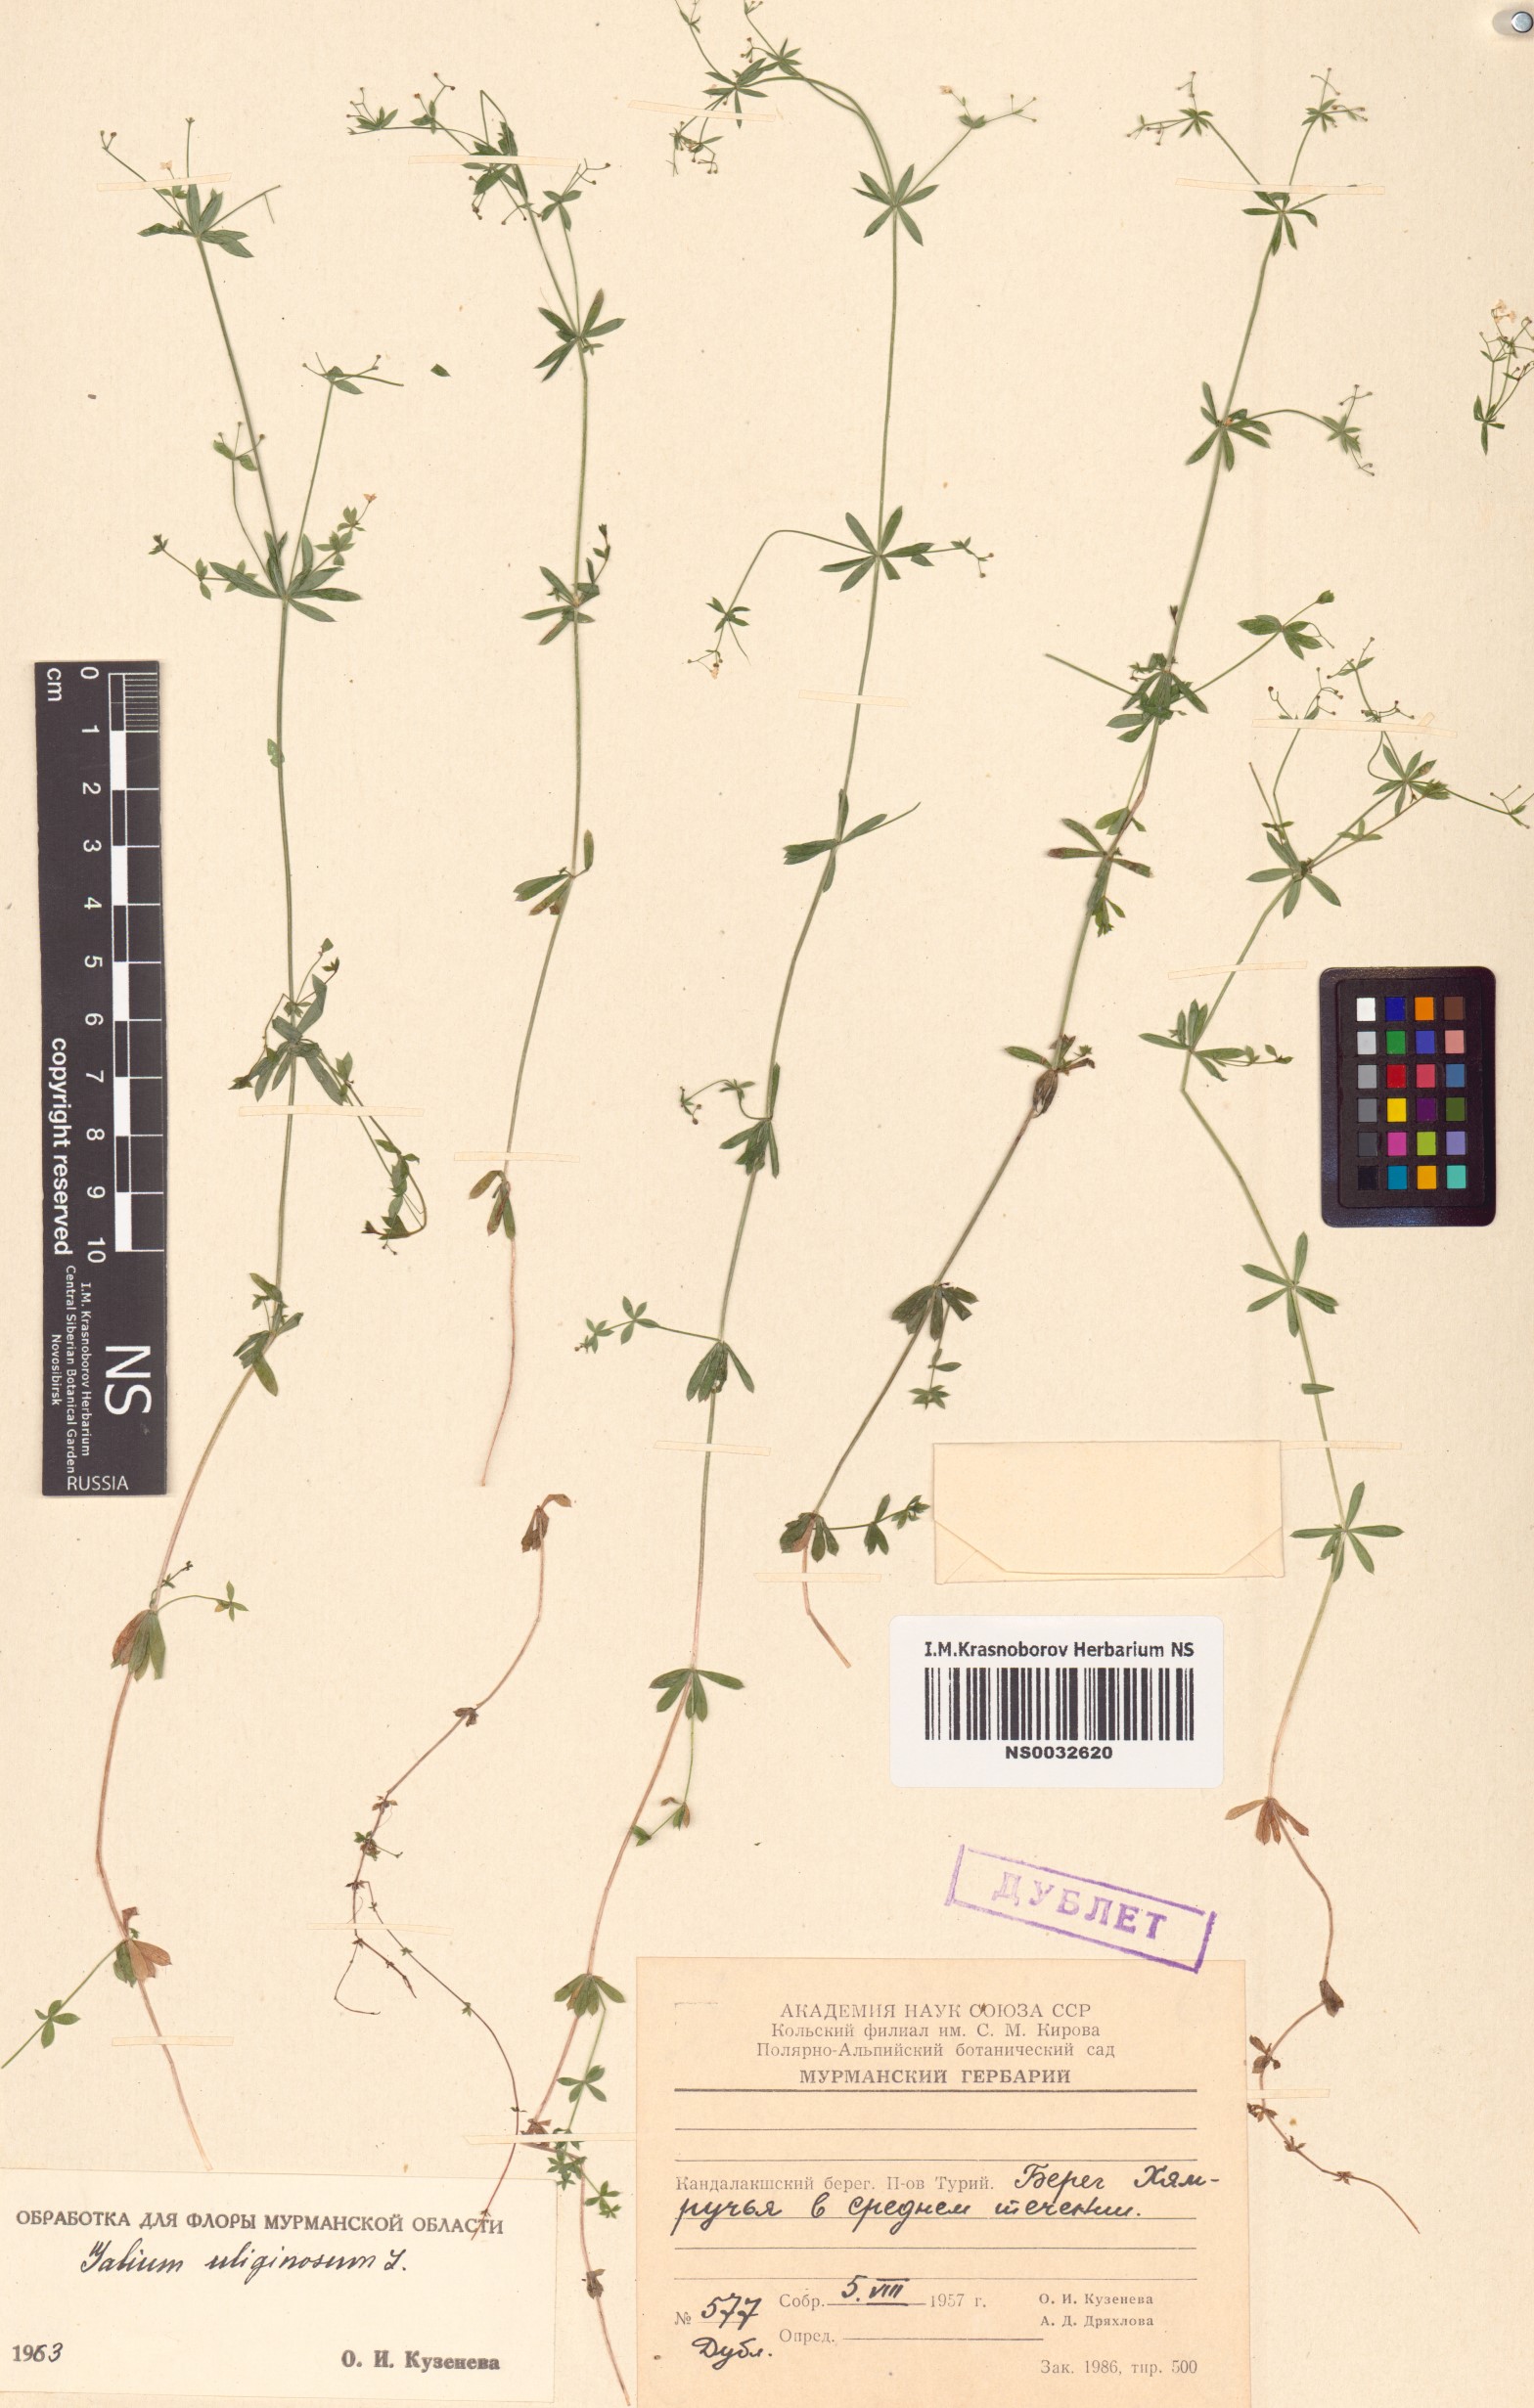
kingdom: Plantae
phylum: Tracheophyta
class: Magnoliopsida
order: Gentianales
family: Rubiaceae
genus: Galium
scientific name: Galium uliginosum
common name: Fen bedstraw
